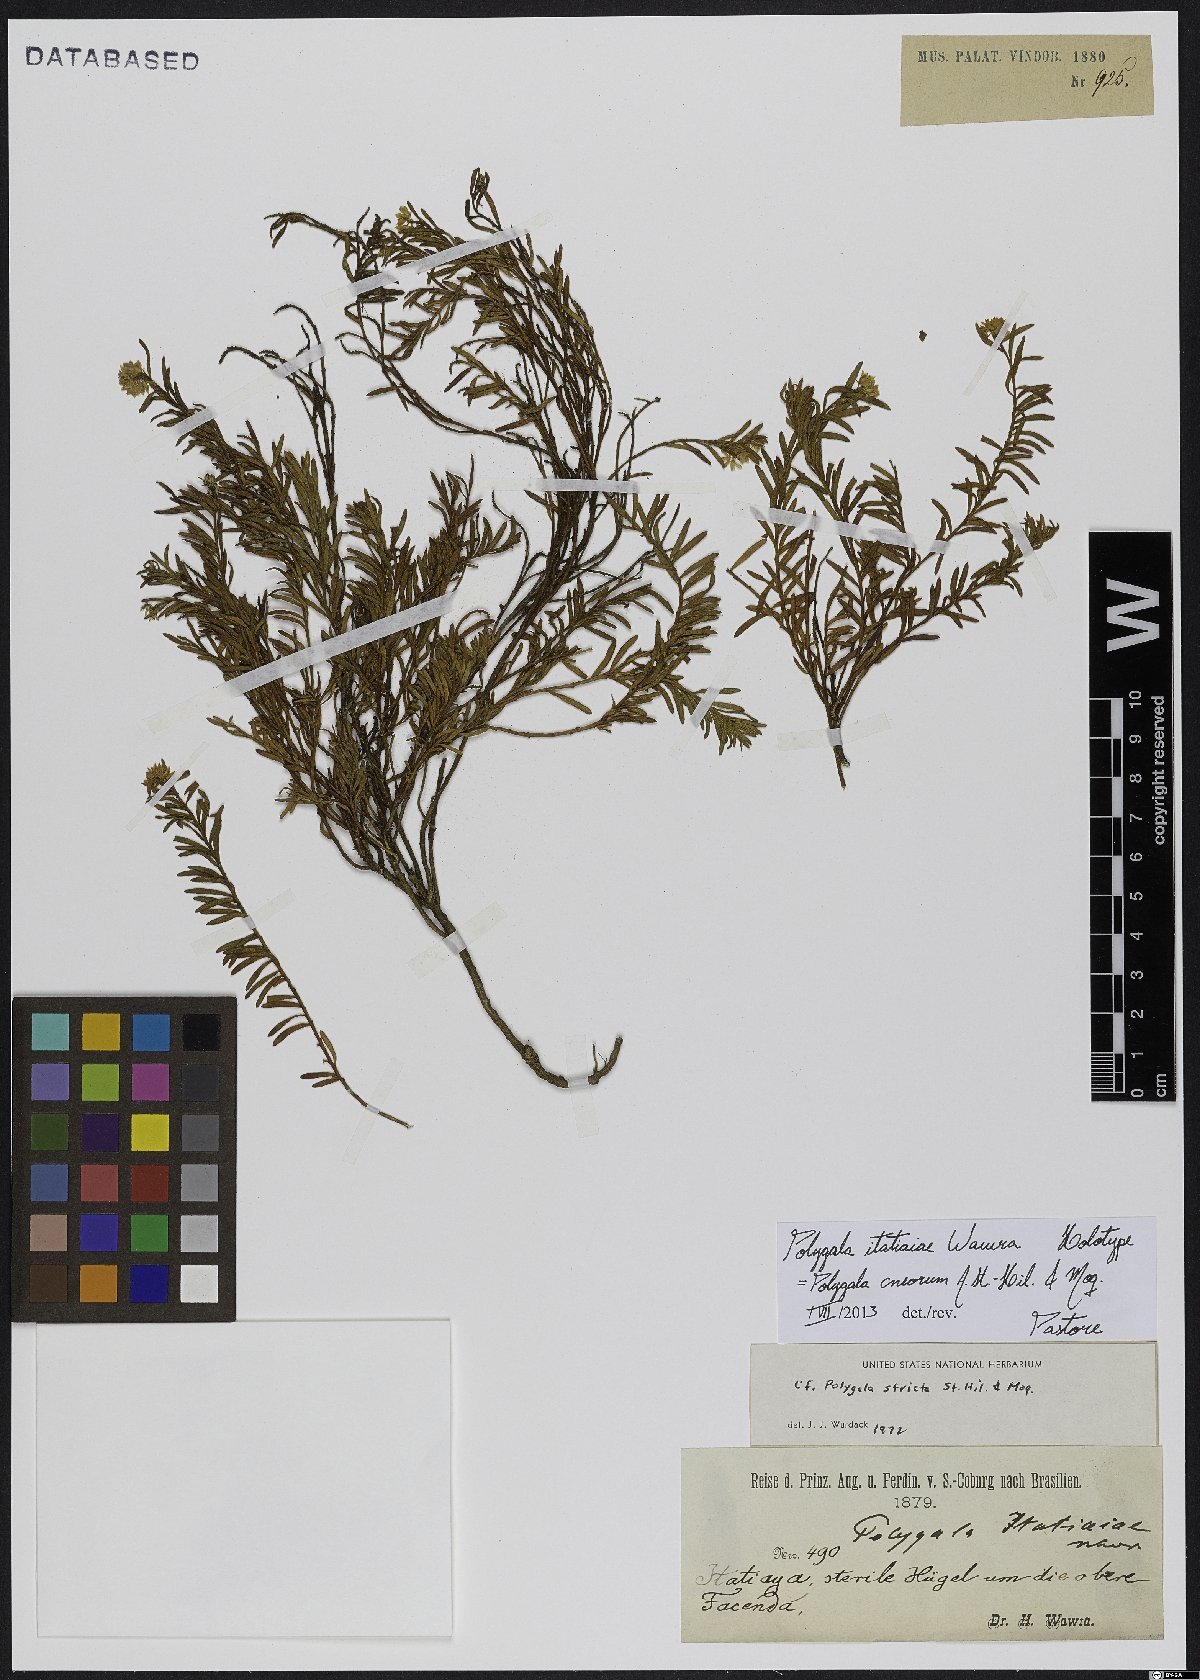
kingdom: Plantae
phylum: Tracheophyta
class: Magnoliopsida
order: Fabales
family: Polygalaceae
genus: Polygala
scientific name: Polygala cneorum
